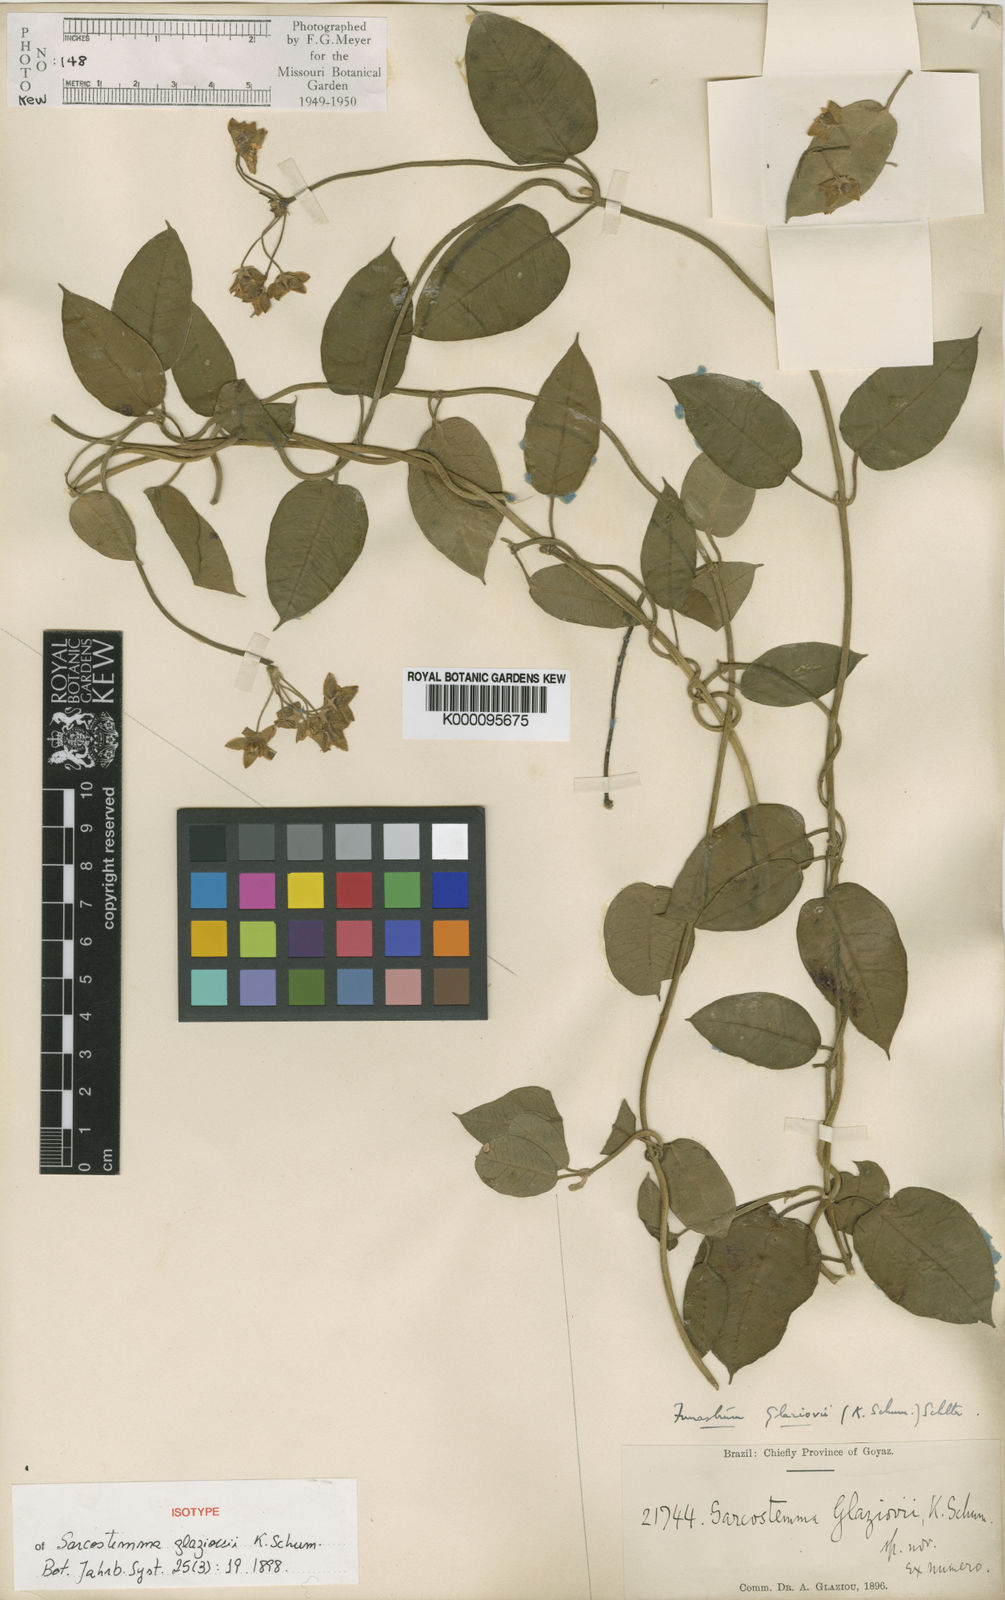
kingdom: Plantae
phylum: Tracheophyta
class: Magnoliopsida
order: Gentianales
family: Apocynaceae
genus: Funastrum
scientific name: Funastrum clausum
